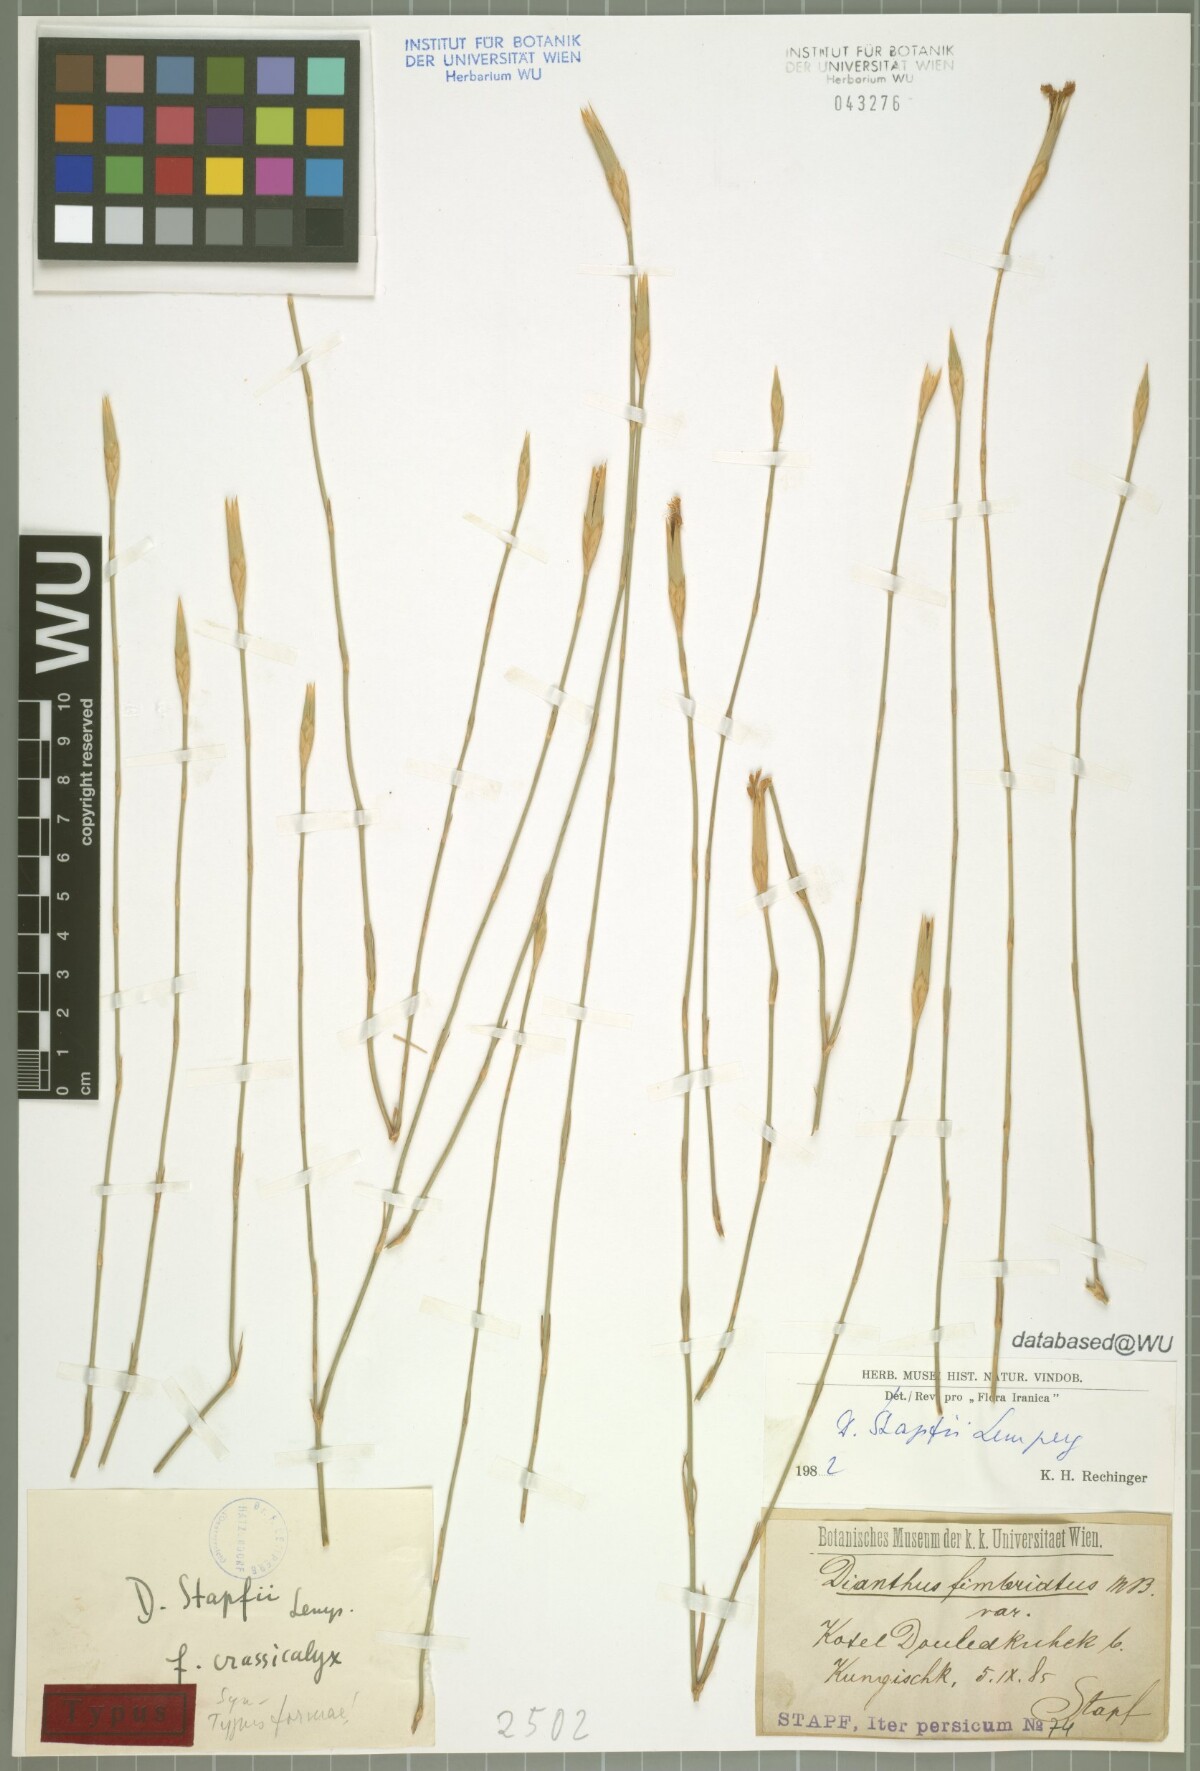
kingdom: Plantae
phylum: Tracheophyta
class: Magnoliopsida
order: Caryophyllales
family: Caryophyllaceae
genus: Dianthus
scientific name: Dianthus stapfii
